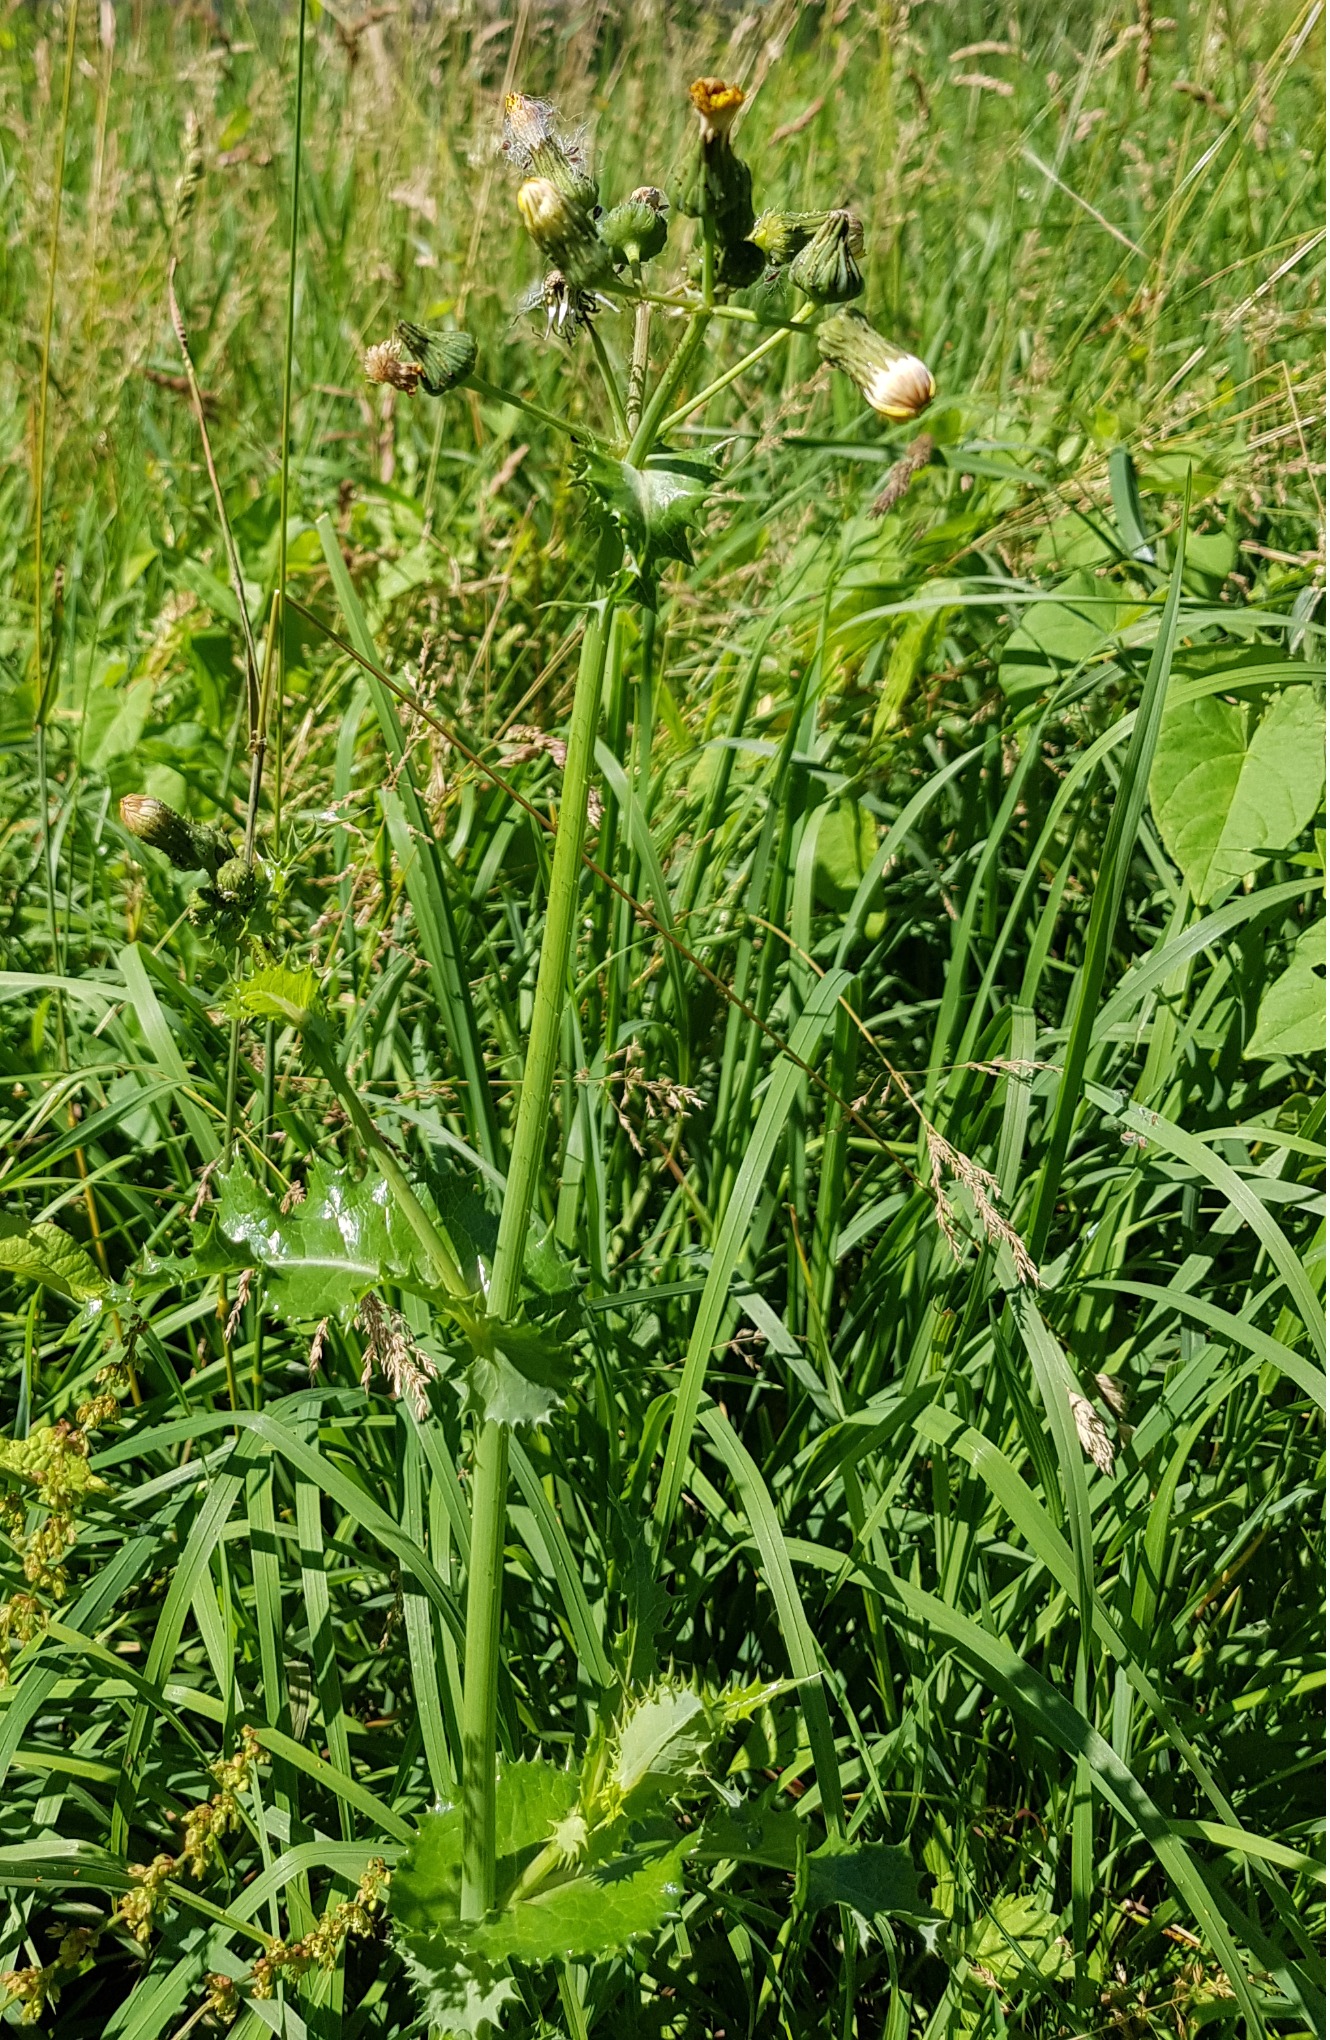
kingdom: Plantae
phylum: Tracheophyta
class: Magnoliopsida
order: Asterales
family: Asteraceae
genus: Sonchus
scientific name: Sonchus asper
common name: Ru svinemælk
